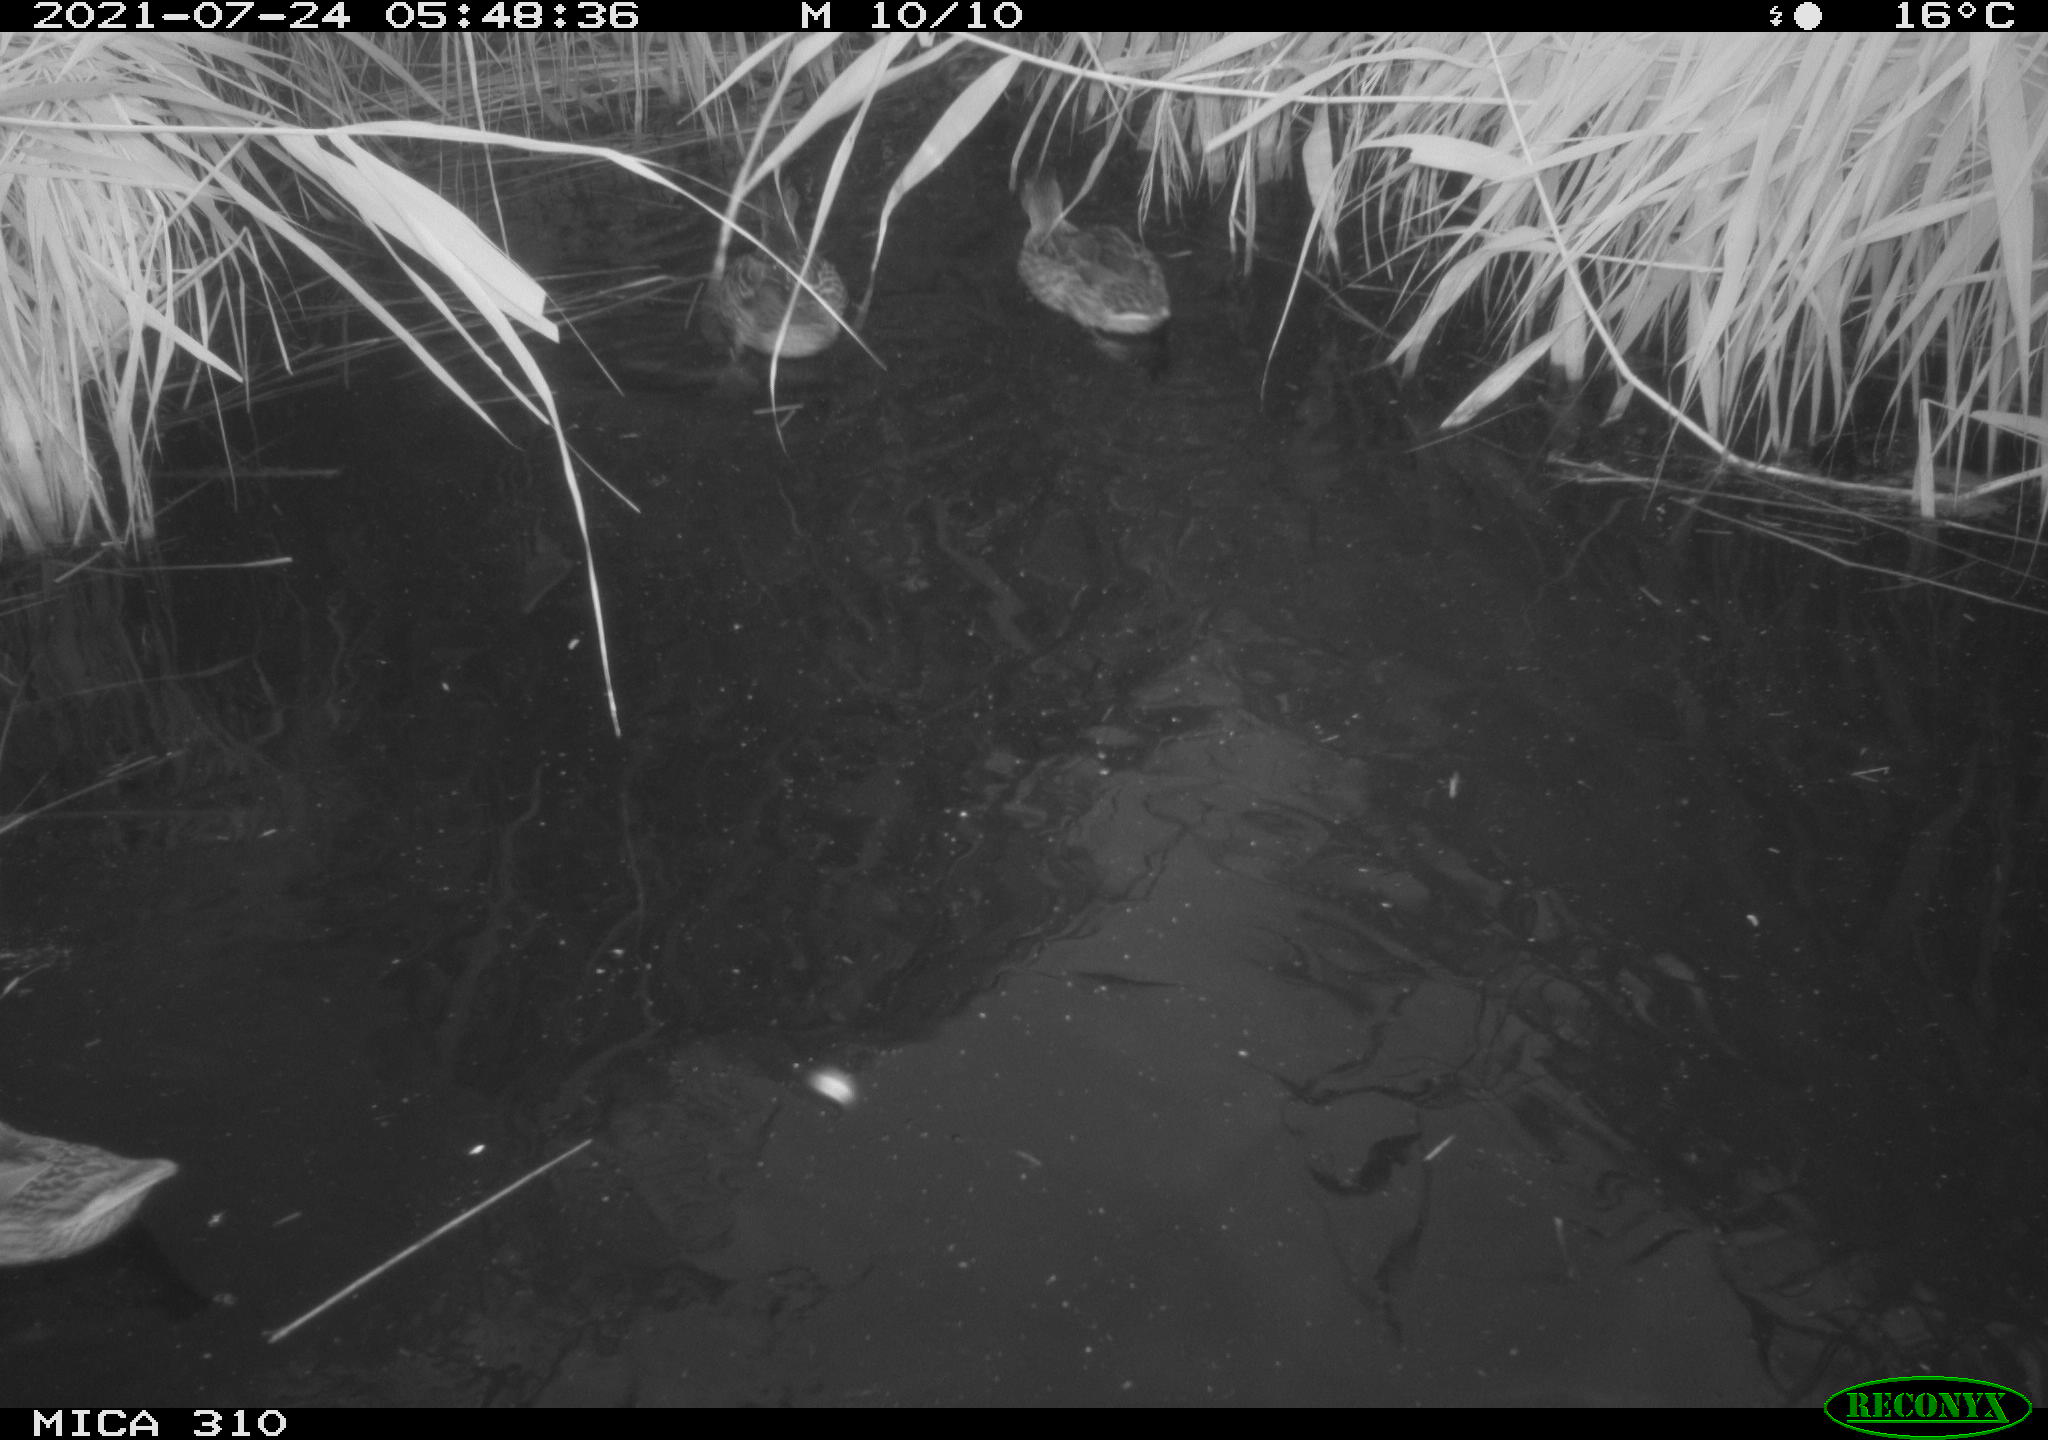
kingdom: Animalia
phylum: Chordata
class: Aves
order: Anseriformes
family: Anatidae
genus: Mareca
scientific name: Mareca strepera
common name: Gadwall
